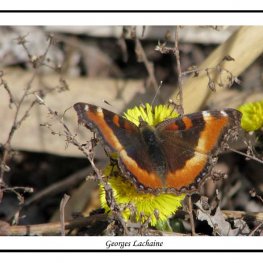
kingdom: Animalia
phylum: Arthropoda
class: Insecta
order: Lepidoptera
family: Nymphalidae
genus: Aglais
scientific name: Aglais milberti
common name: Milbert's Tortoiseshell
